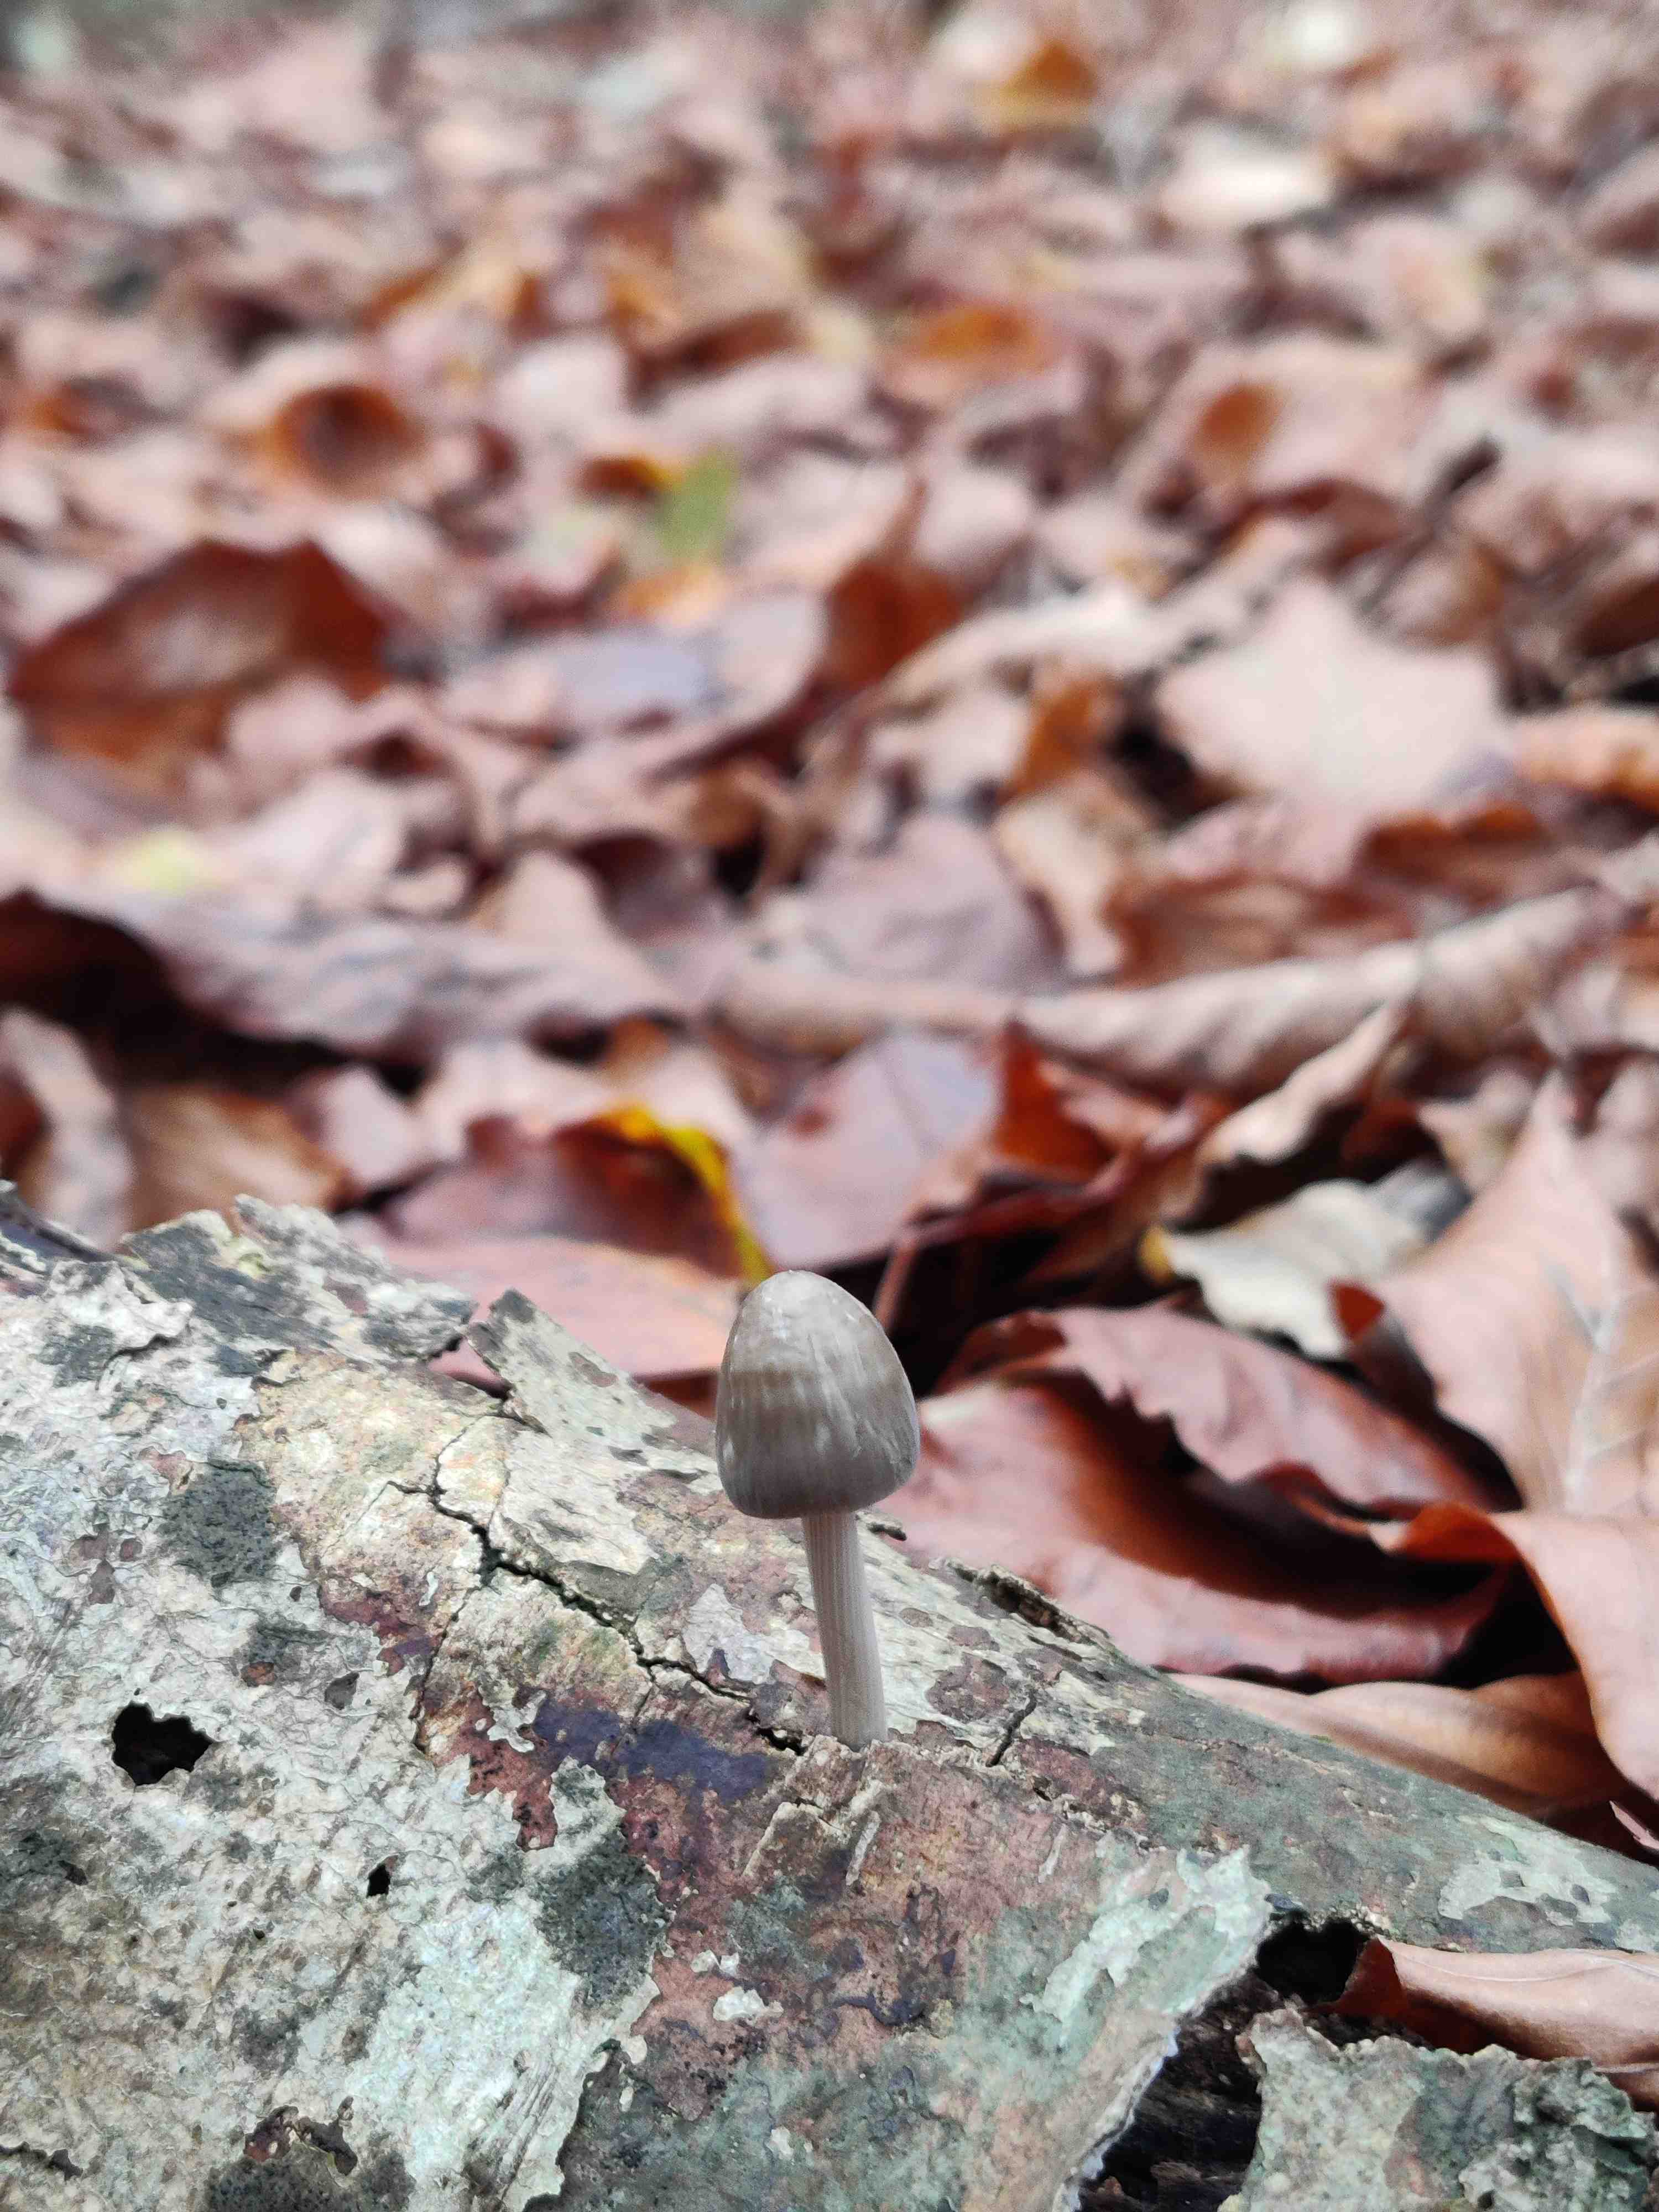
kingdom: Fungi
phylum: Basidiomycota
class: Agaricomycetes
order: Agaricales
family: Mycenaceae
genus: Mycena
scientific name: Mycena polygramma
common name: mangestribet huesvamp
